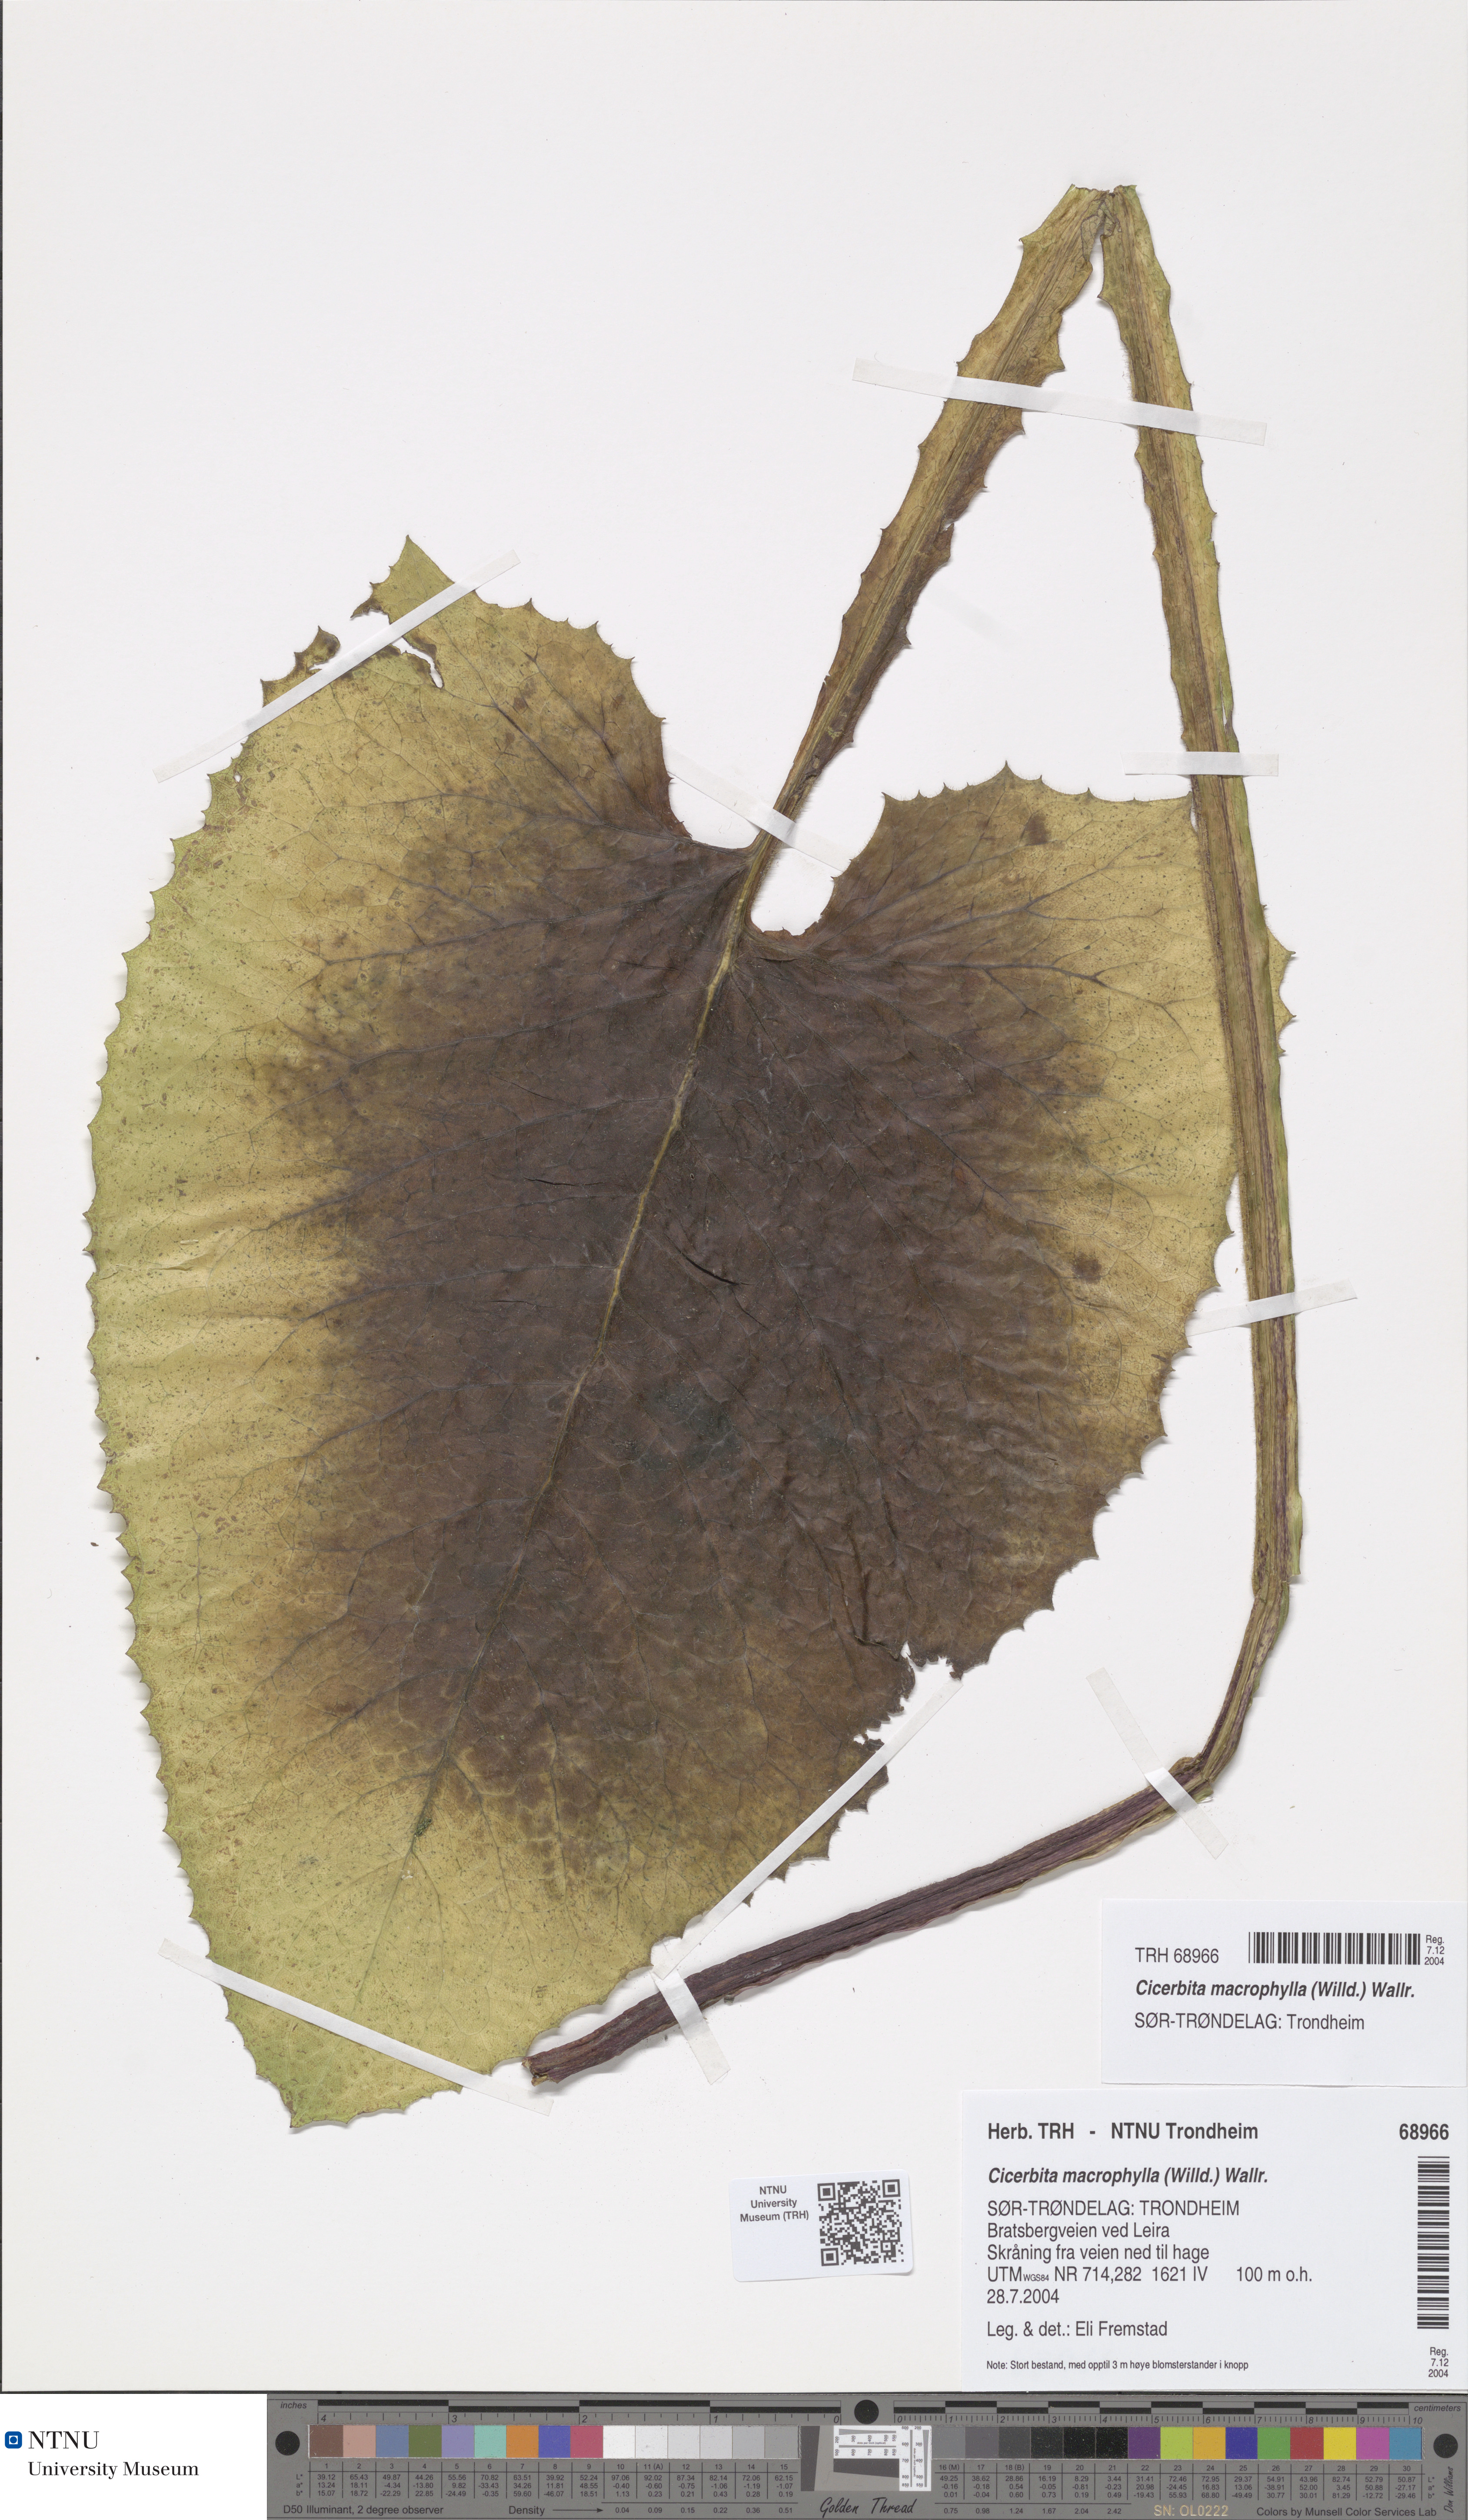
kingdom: Plantae
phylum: Tracheophyta
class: Magnoliopsida
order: Asterales
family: Asteraceae
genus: Lactuca
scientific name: Lactuca macrophylla
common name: Common blue-sow-thistle
